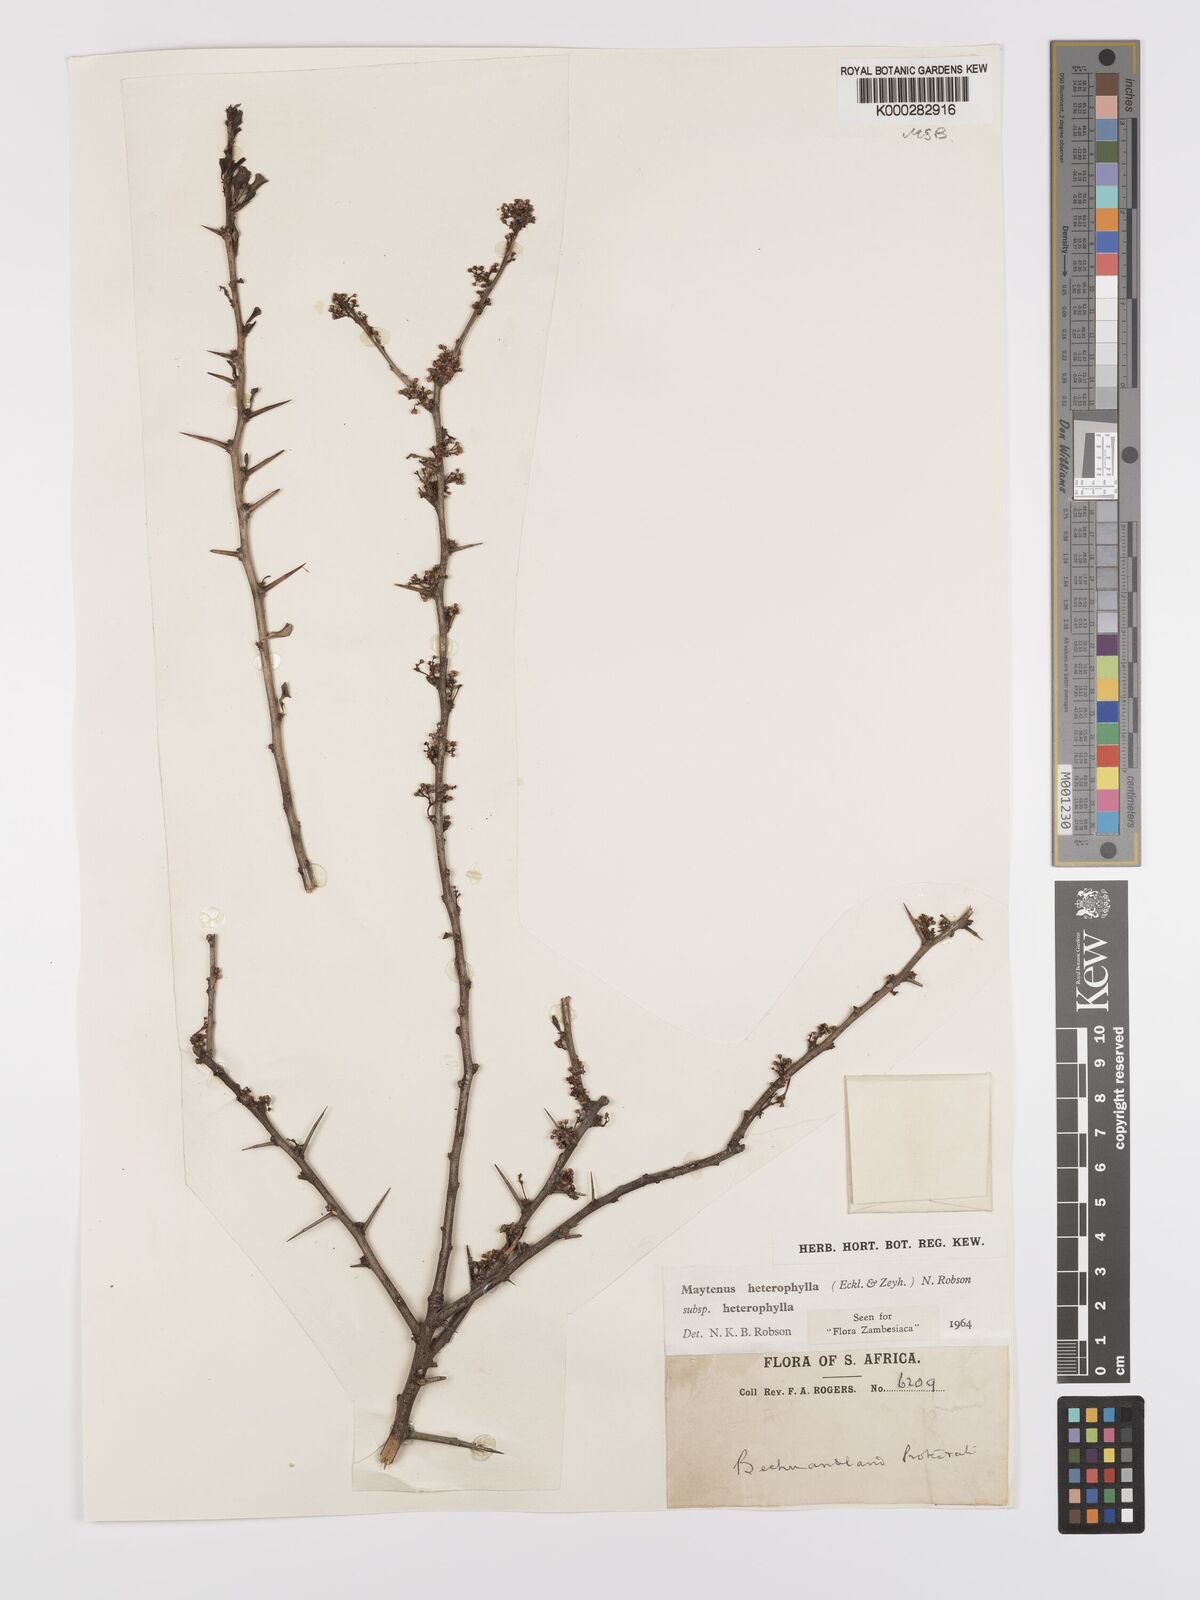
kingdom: Plantae
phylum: Tracheophyta
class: Magnoliopsida
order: Celastrales
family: Celastraceae
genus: Gymnosporia
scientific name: Gymnosporia heterophylla
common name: Angle-stem spikethorn
